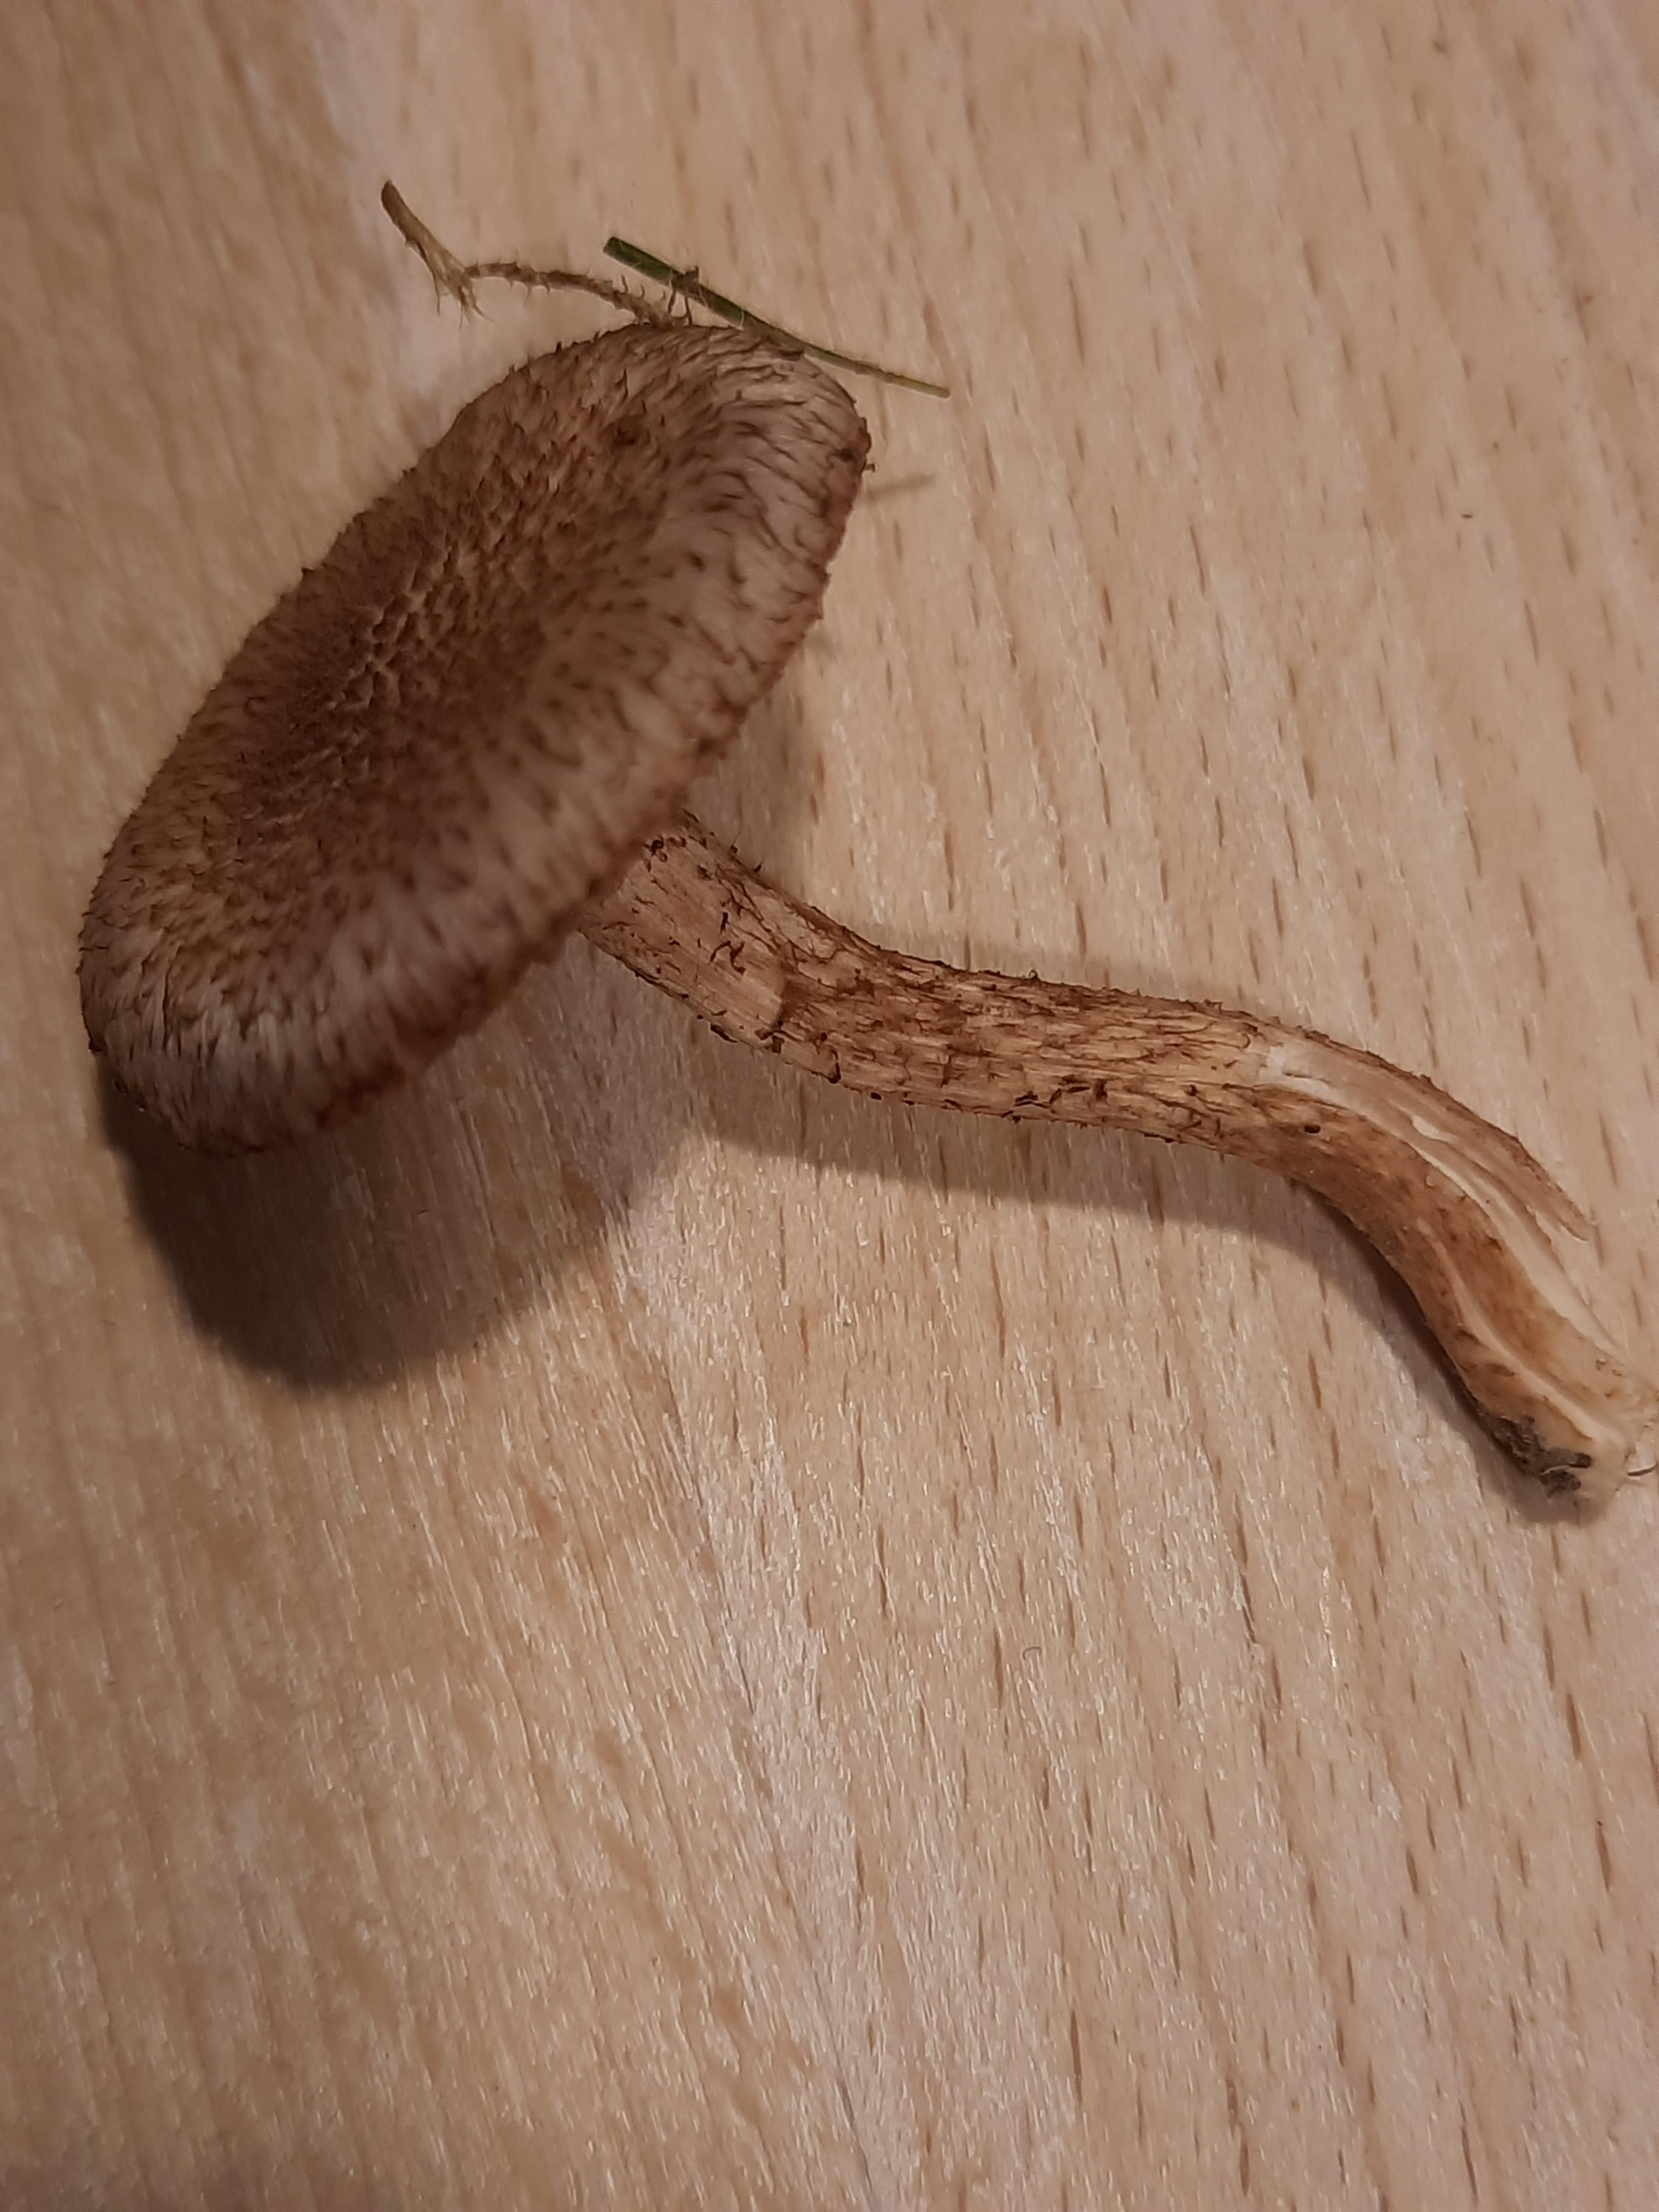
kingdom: Fungi
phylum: Basidiomycota
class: Agaricomycetes
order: Agaricales
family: Inocybaceae
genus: Inocybe
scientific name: Inocybe
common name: trævlhat
